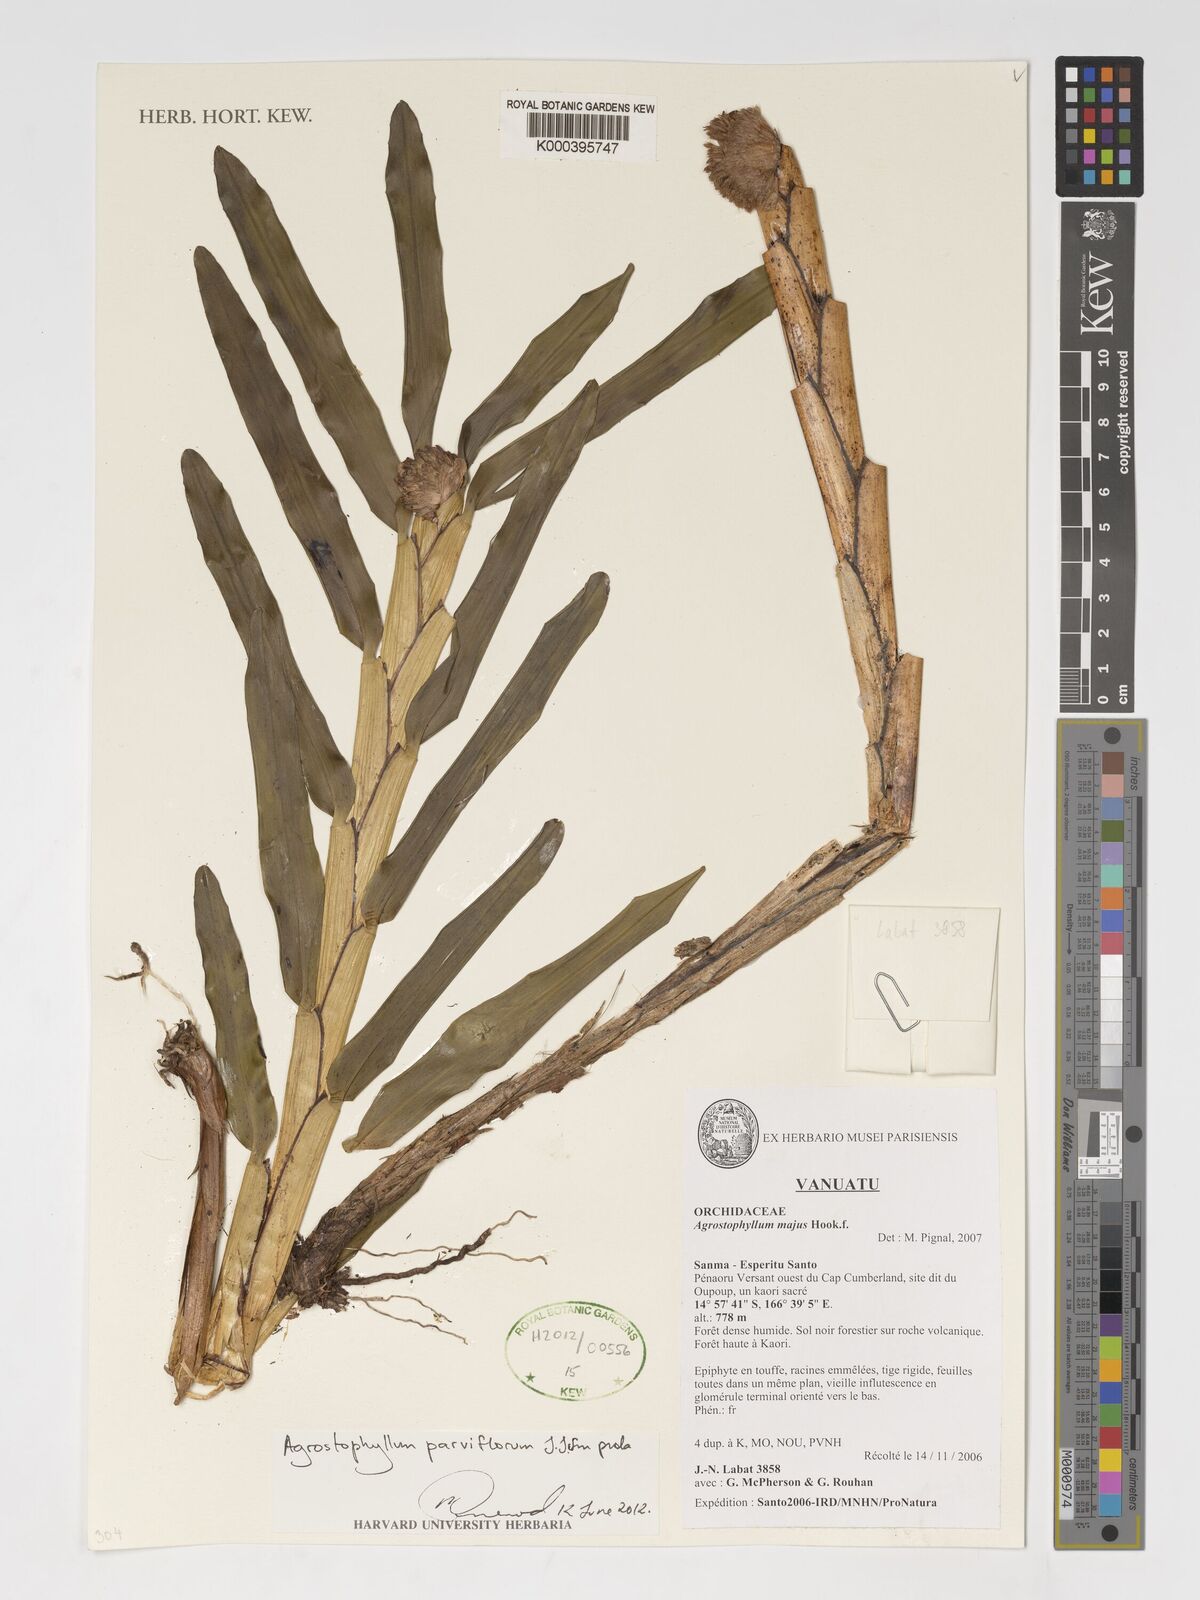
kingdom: Plantae
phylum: Tracheophyta
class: Liliopsida
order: Asparagales
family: Orchidaceae
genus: Agrostophyllum
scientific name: Agrostophyllum majus
